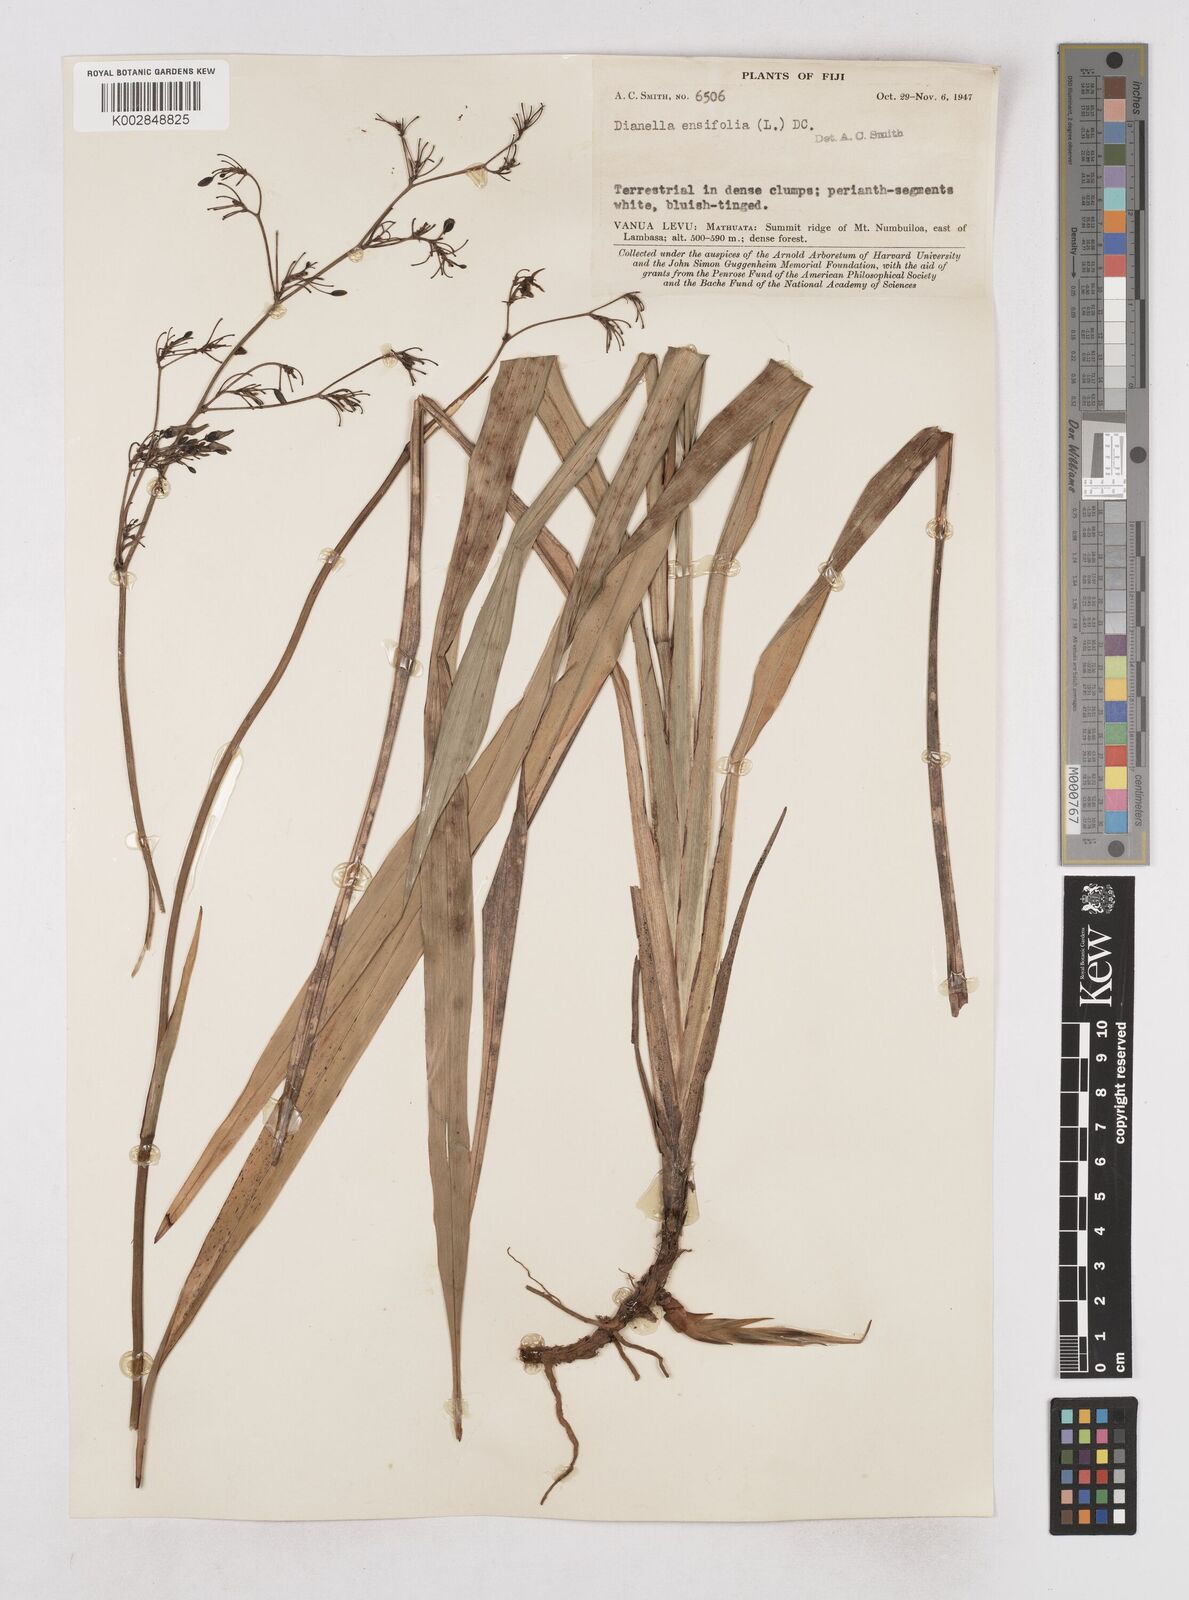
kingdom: Plantae
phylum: Tracheophyta
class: Liliopsida
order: Asparagales
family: Asphodelaceae
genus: Dianella
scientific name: Dianella ensifolia
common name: New zealand lilyplant
